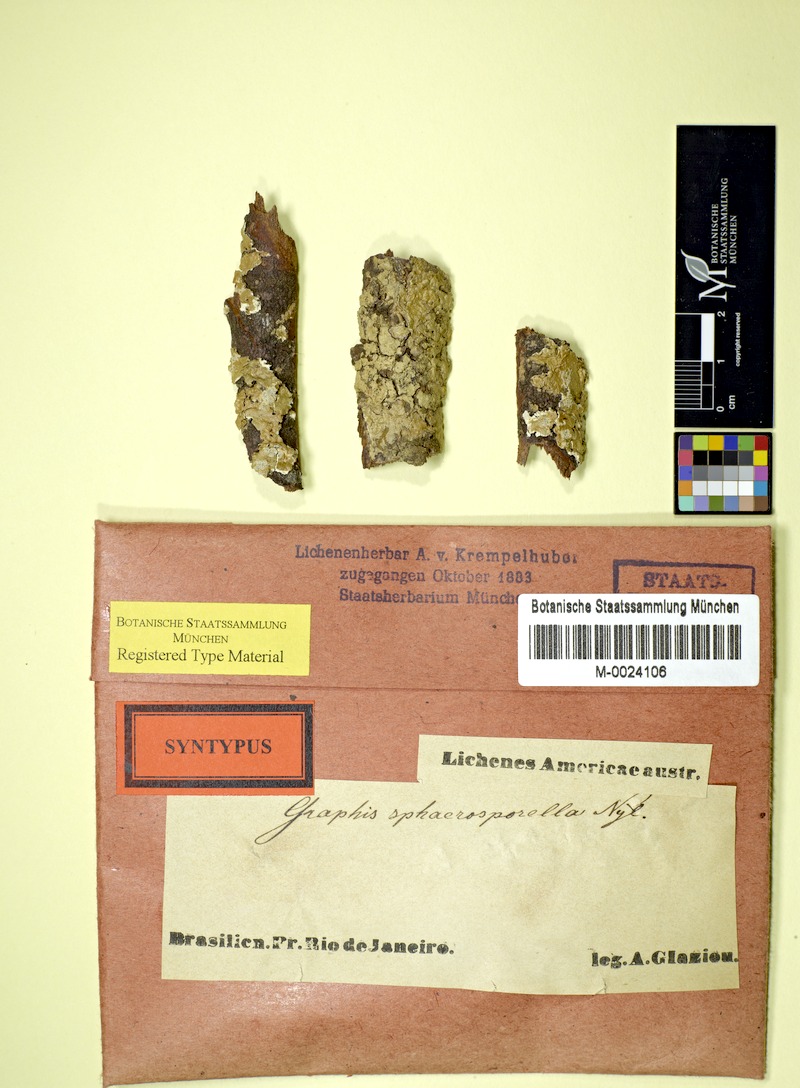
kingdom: Fungi
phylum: Ascomycota
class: Lecanoromycetes
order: Ostropales
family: Graphidaceae
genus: Platythecium
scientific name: Platythecium sphaerosporellum
